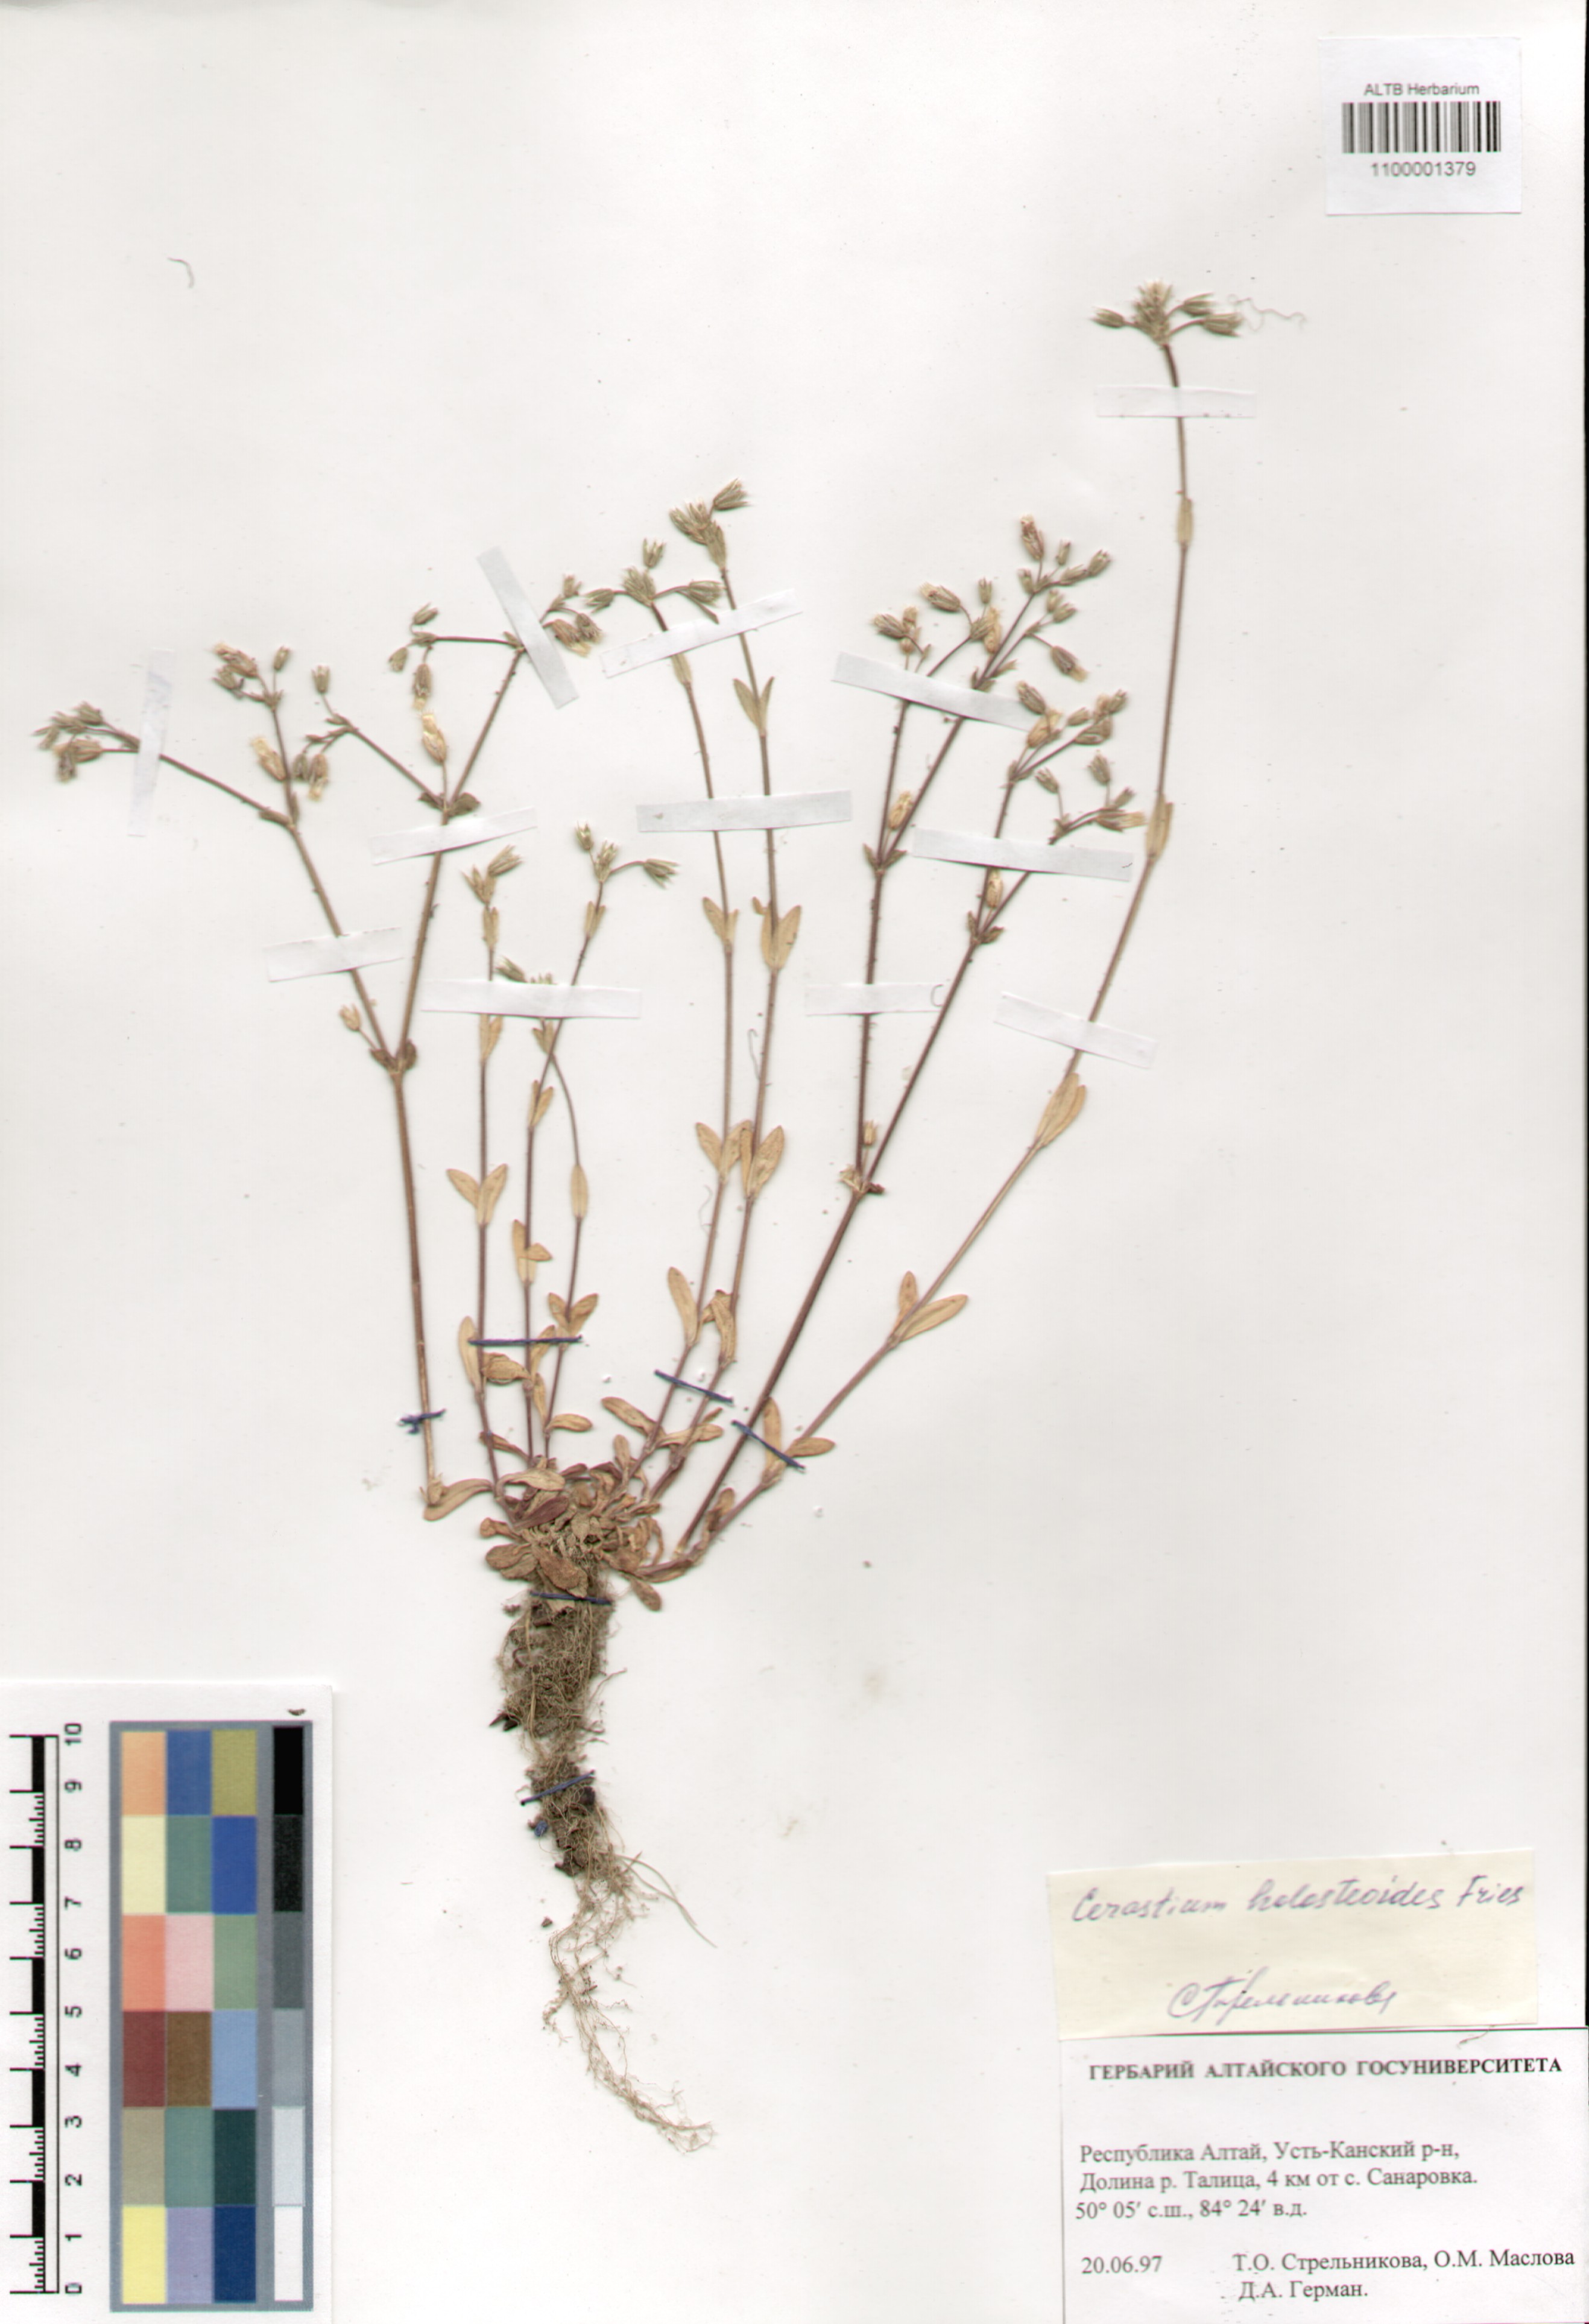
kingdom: Plantae
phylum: Tracheophyta
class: Magnoliopsida
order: Caryophyllales
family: Caryophyllaceae
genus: Cerastium
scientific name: Cerastium holosteoides
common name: Big chickweed
